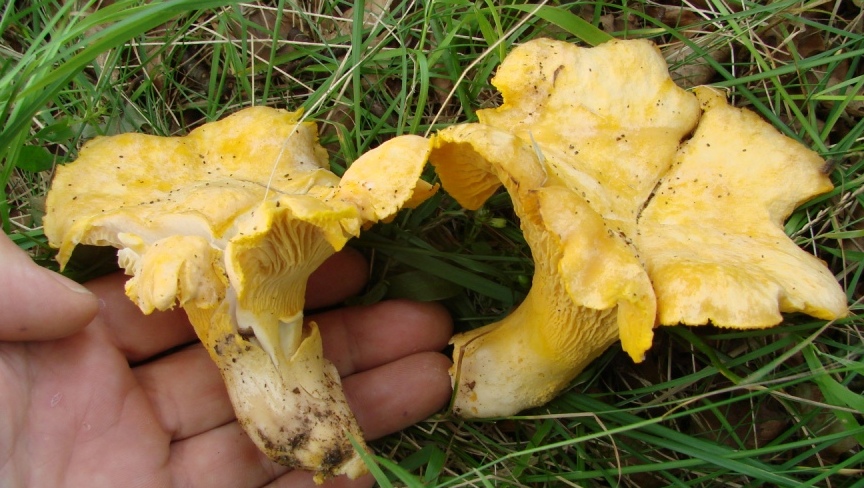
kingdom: Fungi
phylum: Basidiomycota
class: Agaricomycetes
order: Cantharellales
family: Hydnaceae
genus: Cantharellus
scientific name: Cantharellus pallens
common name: bleg kantarel
